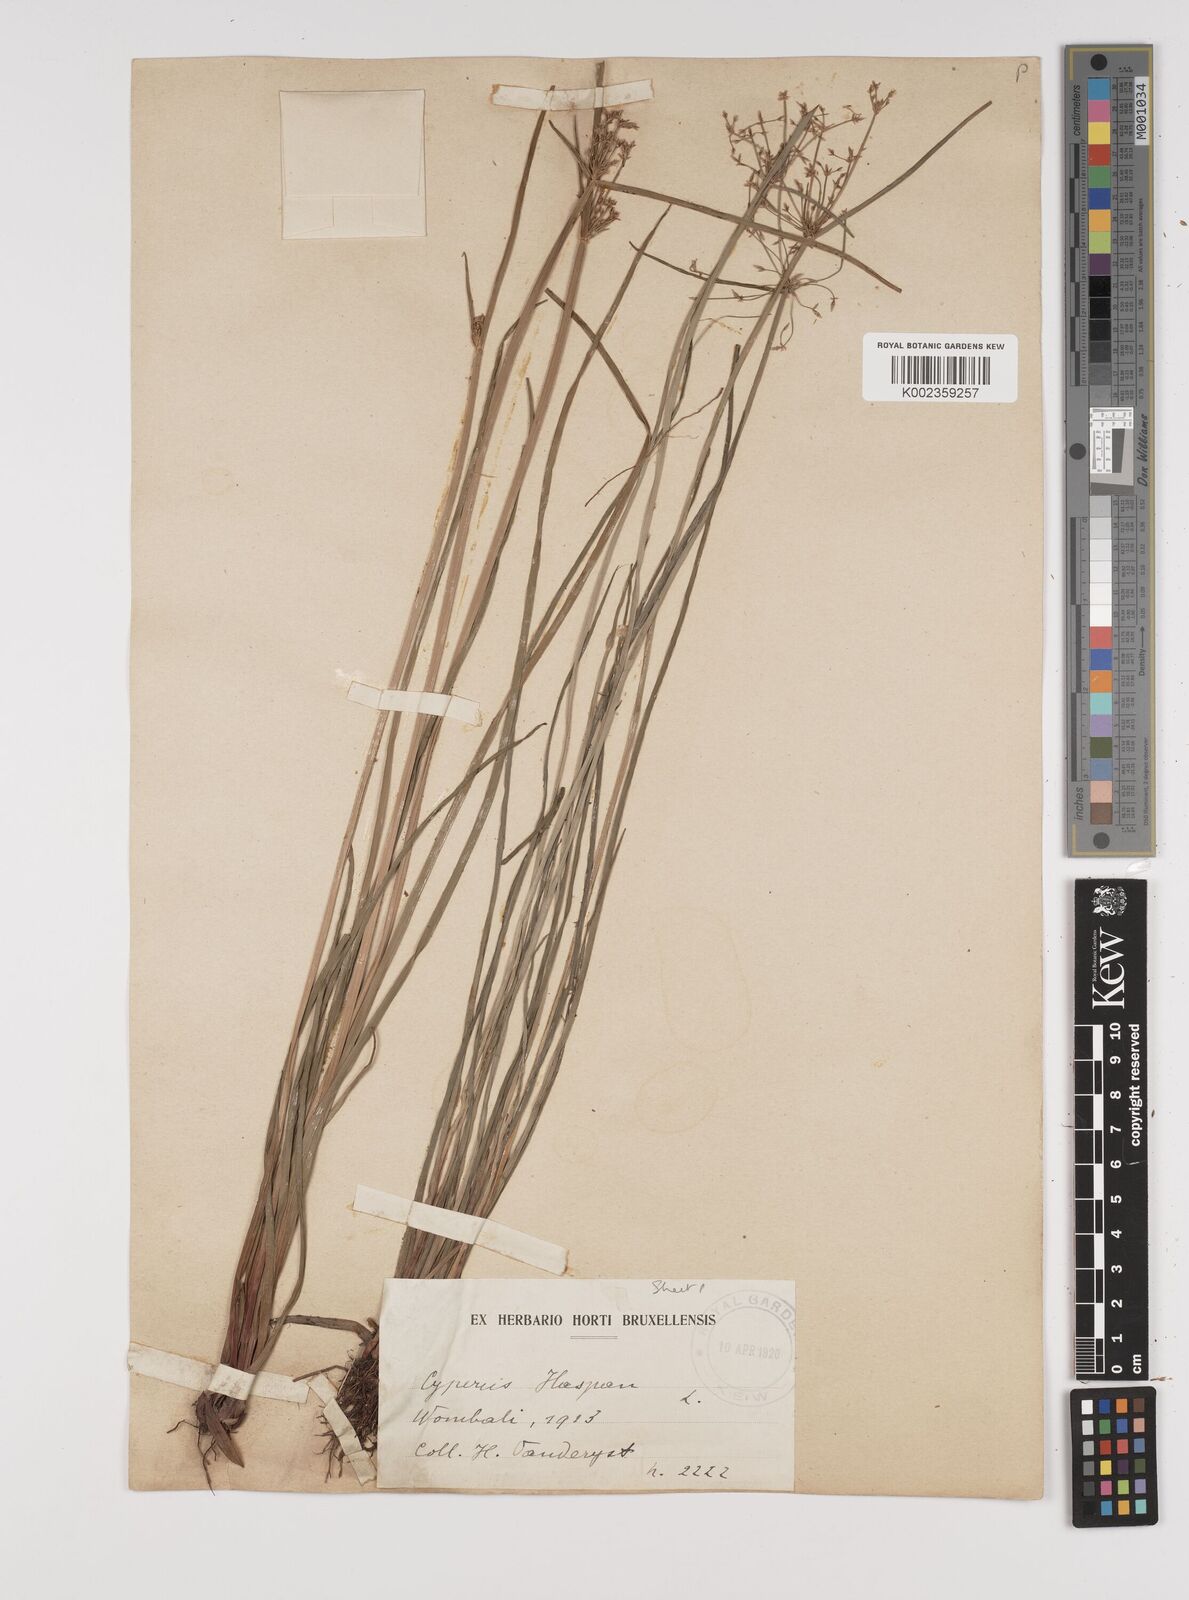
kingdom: Plantae
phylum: Tracheophyta
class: Liliopsida
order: Poales
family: Cyperaceae
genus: Cyperus
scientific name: Cyperus haspan
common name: Haspan flatsedge
